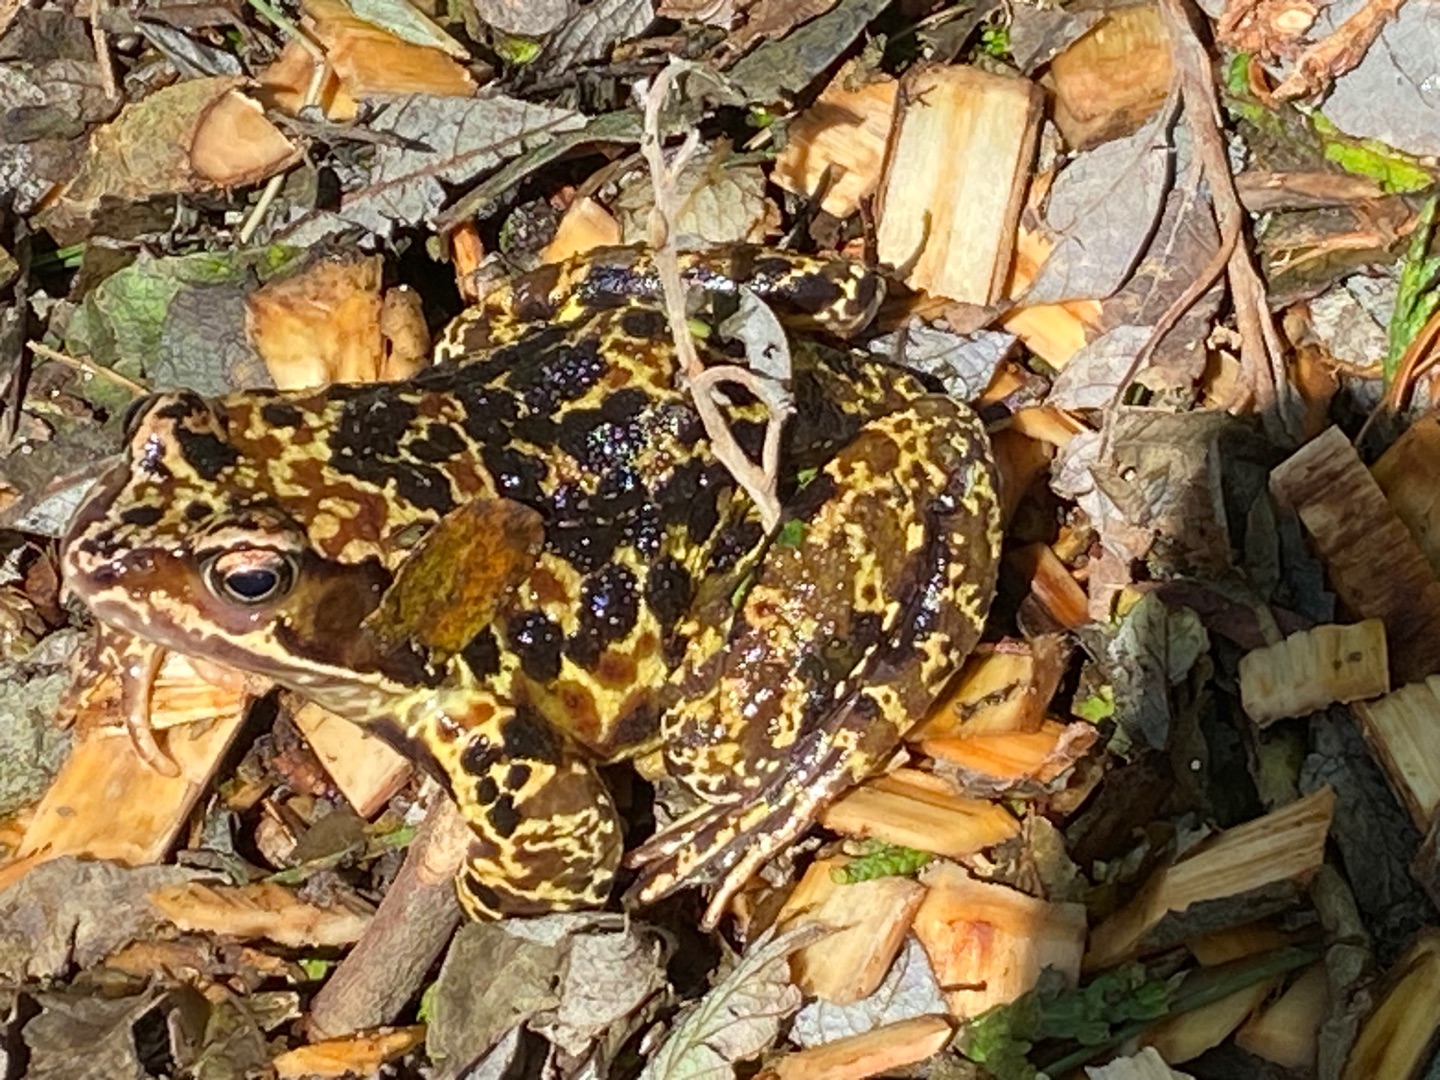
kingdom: Animalia
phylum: Chordata
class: Amphibia
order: Anura
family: Ranidae
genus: Rana
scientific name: Rana temporaria
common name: Butsnudet frø
